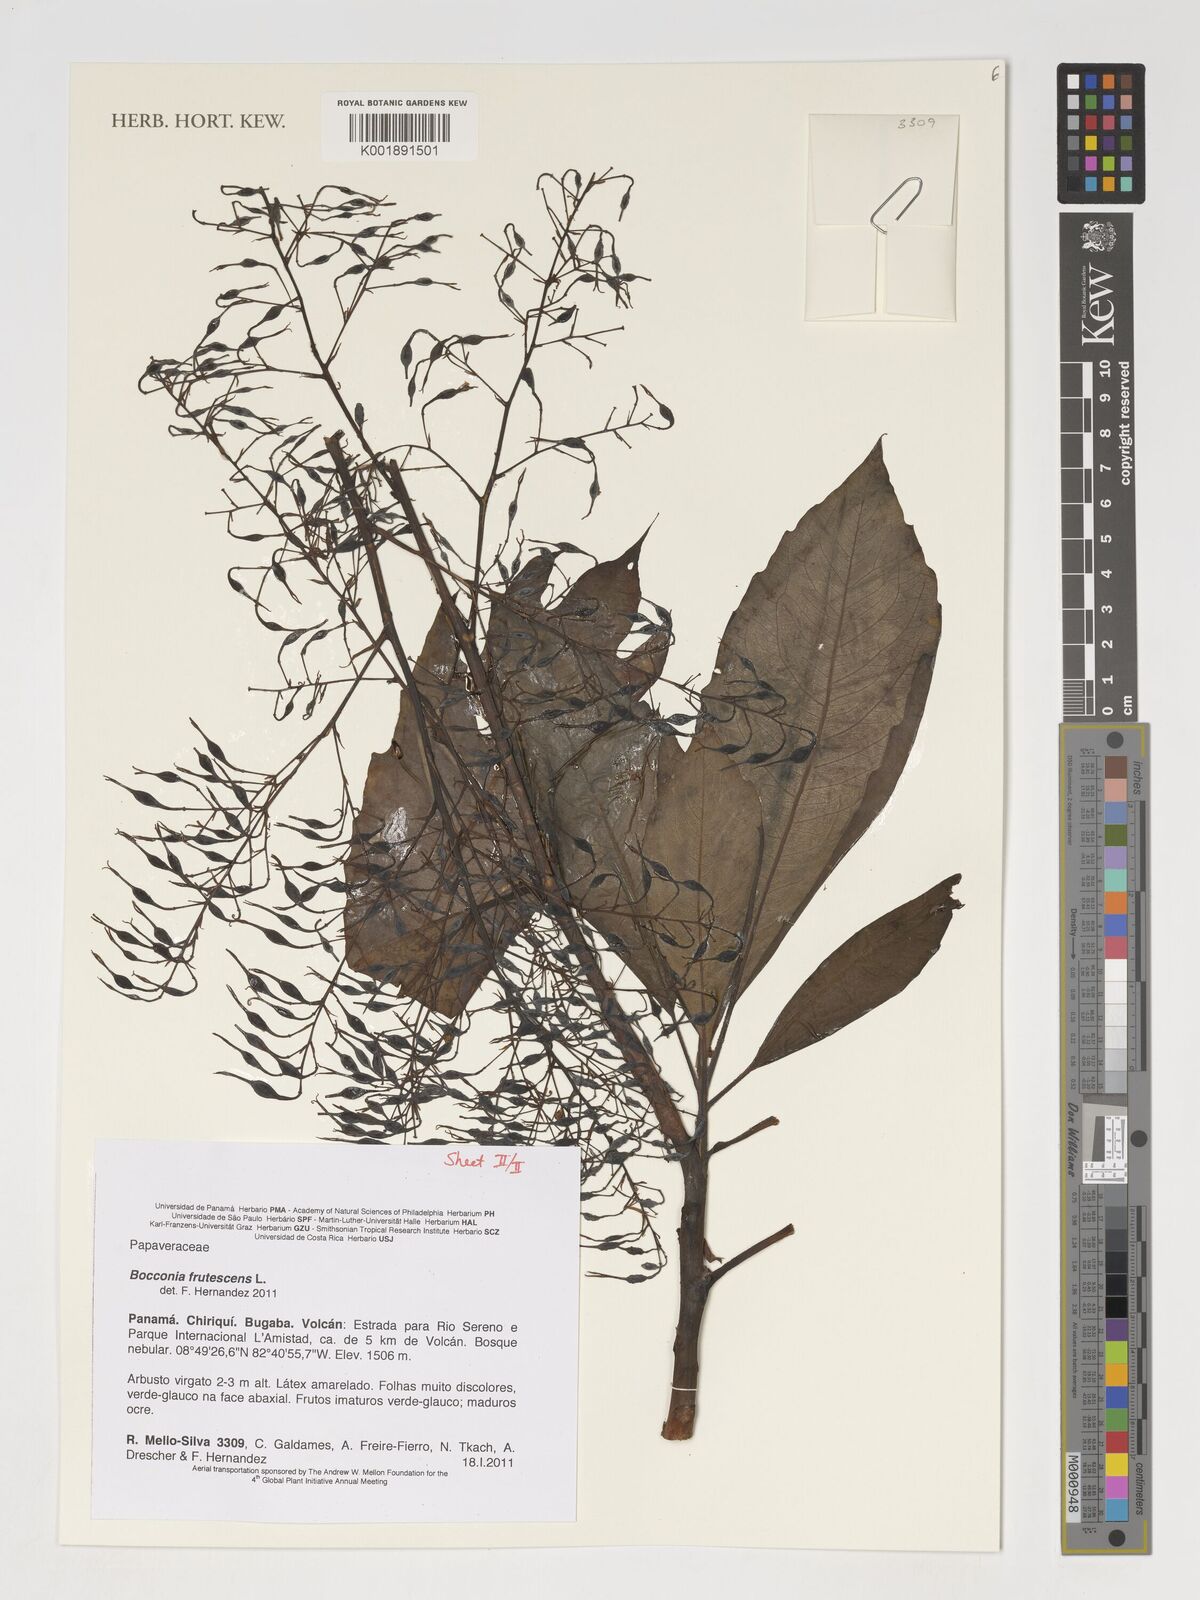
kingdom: Plantae
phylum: Tracheophyta
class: Magnoliopsida
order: Ranunculales
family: Papaveraceae
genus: Bocconia
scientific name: Bocconia frutescens
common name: Tree poppy
